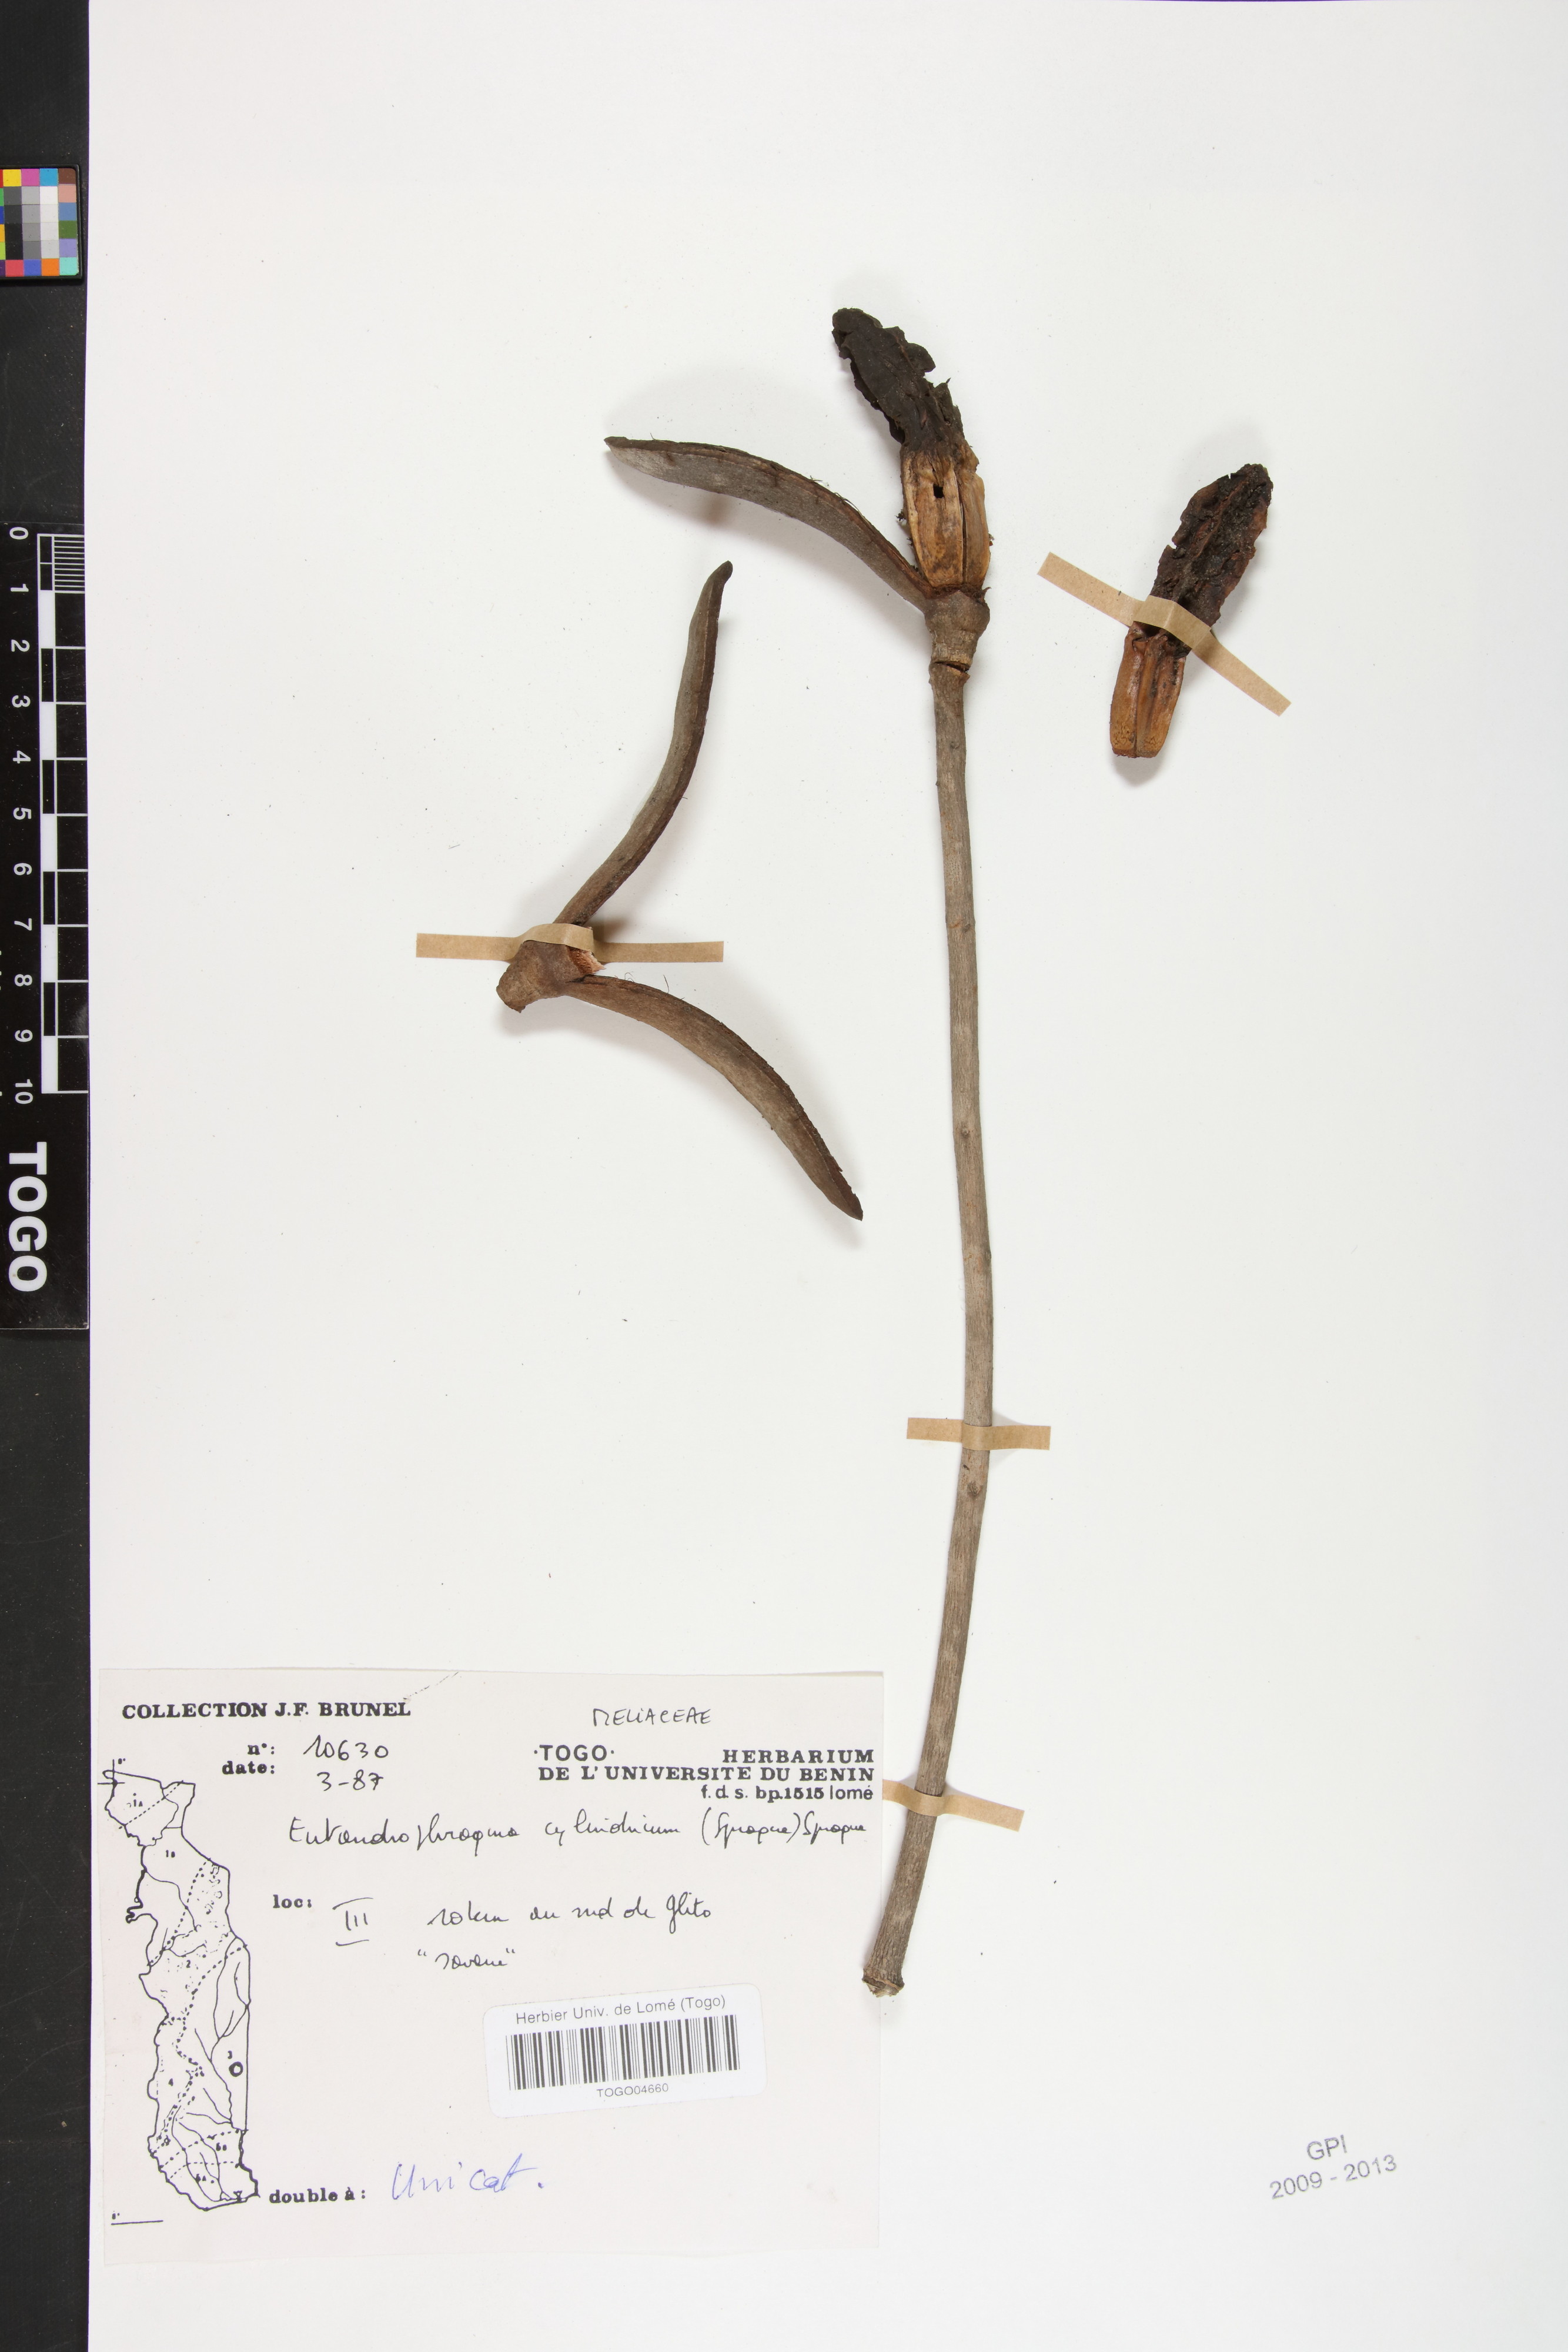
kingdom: Plantae
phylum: Tracheophyta
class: Magnoliopsida
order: Sapindales
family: Meliaceae
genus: Entandrophragma
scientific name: Entandrophragma cylindricum
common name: Sapele
